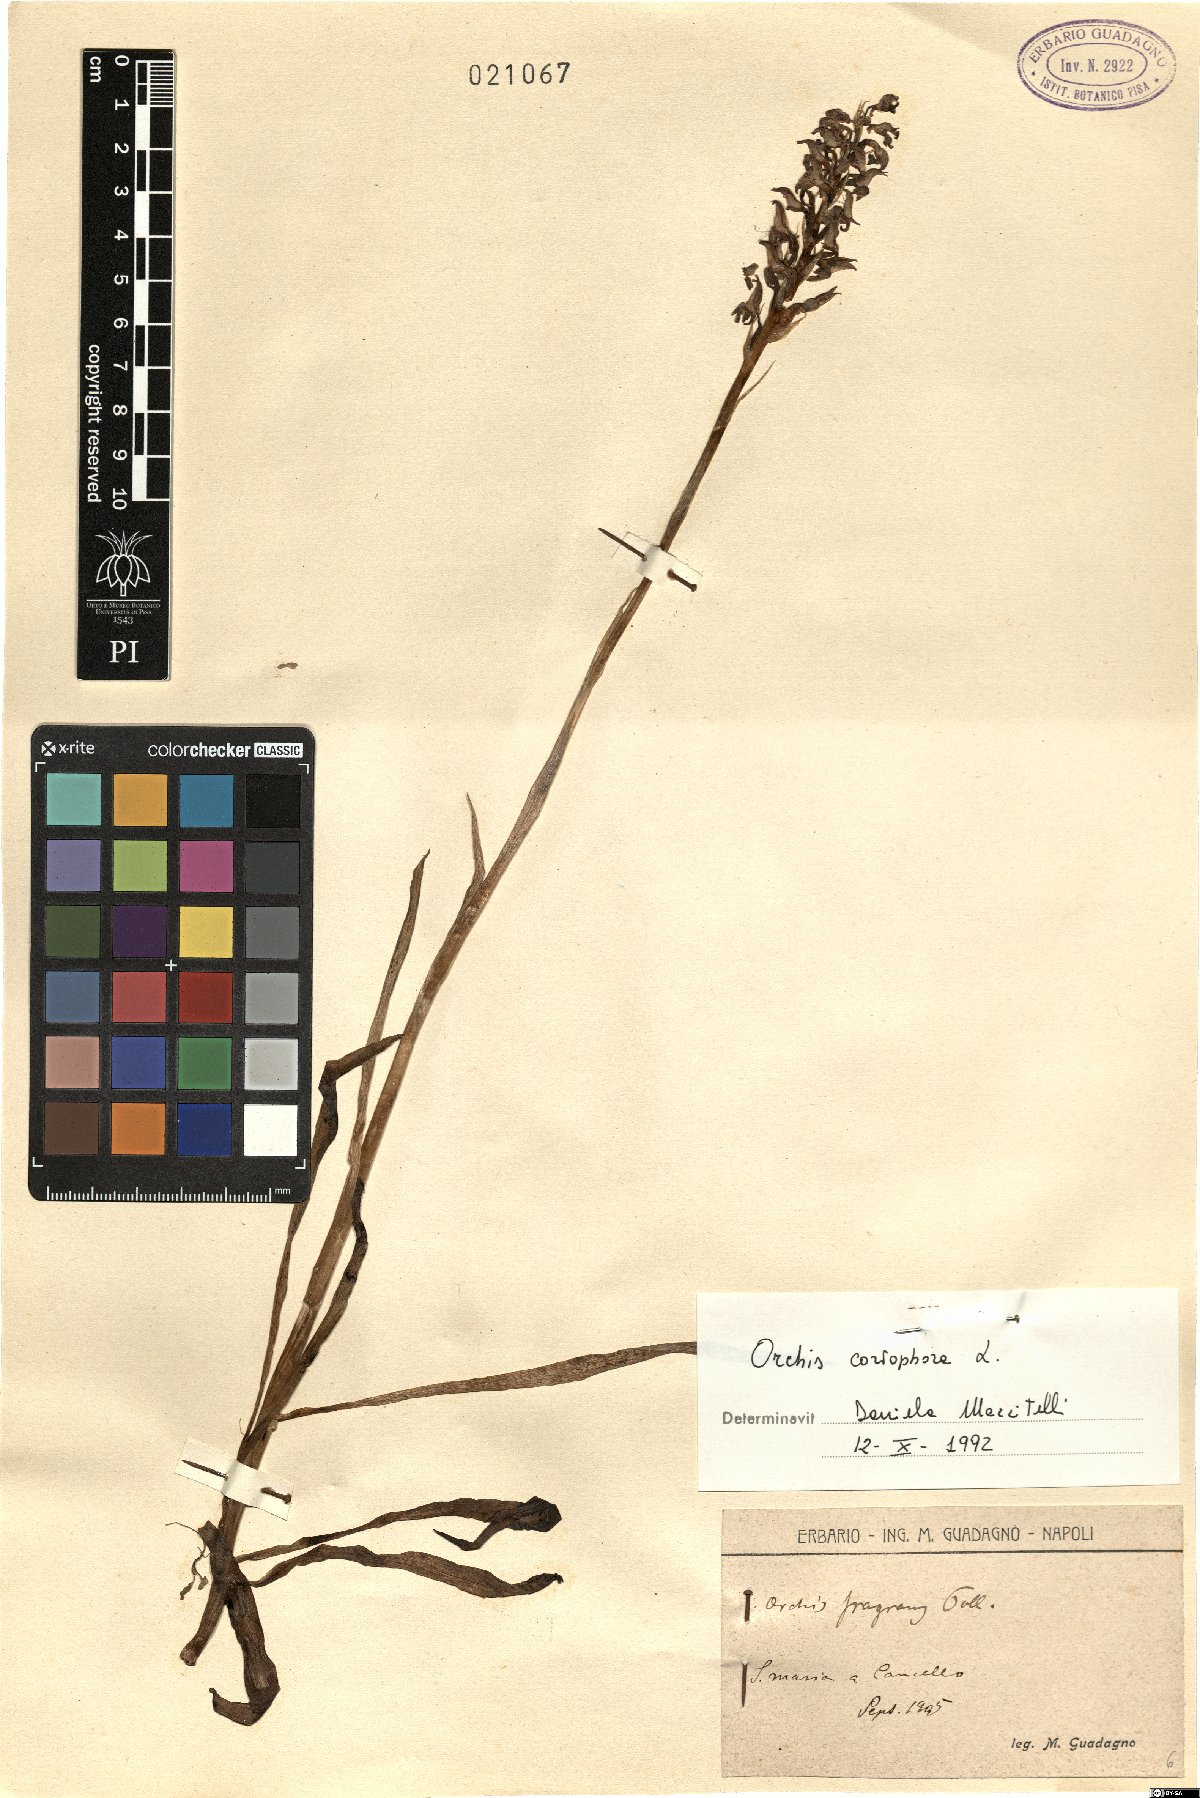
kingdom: Plantae
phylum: Tracheophyta
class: Liliopsida
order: Asparagales
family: Orchidaceae
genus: Anacamptis
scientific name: Anacamptis coriophora
